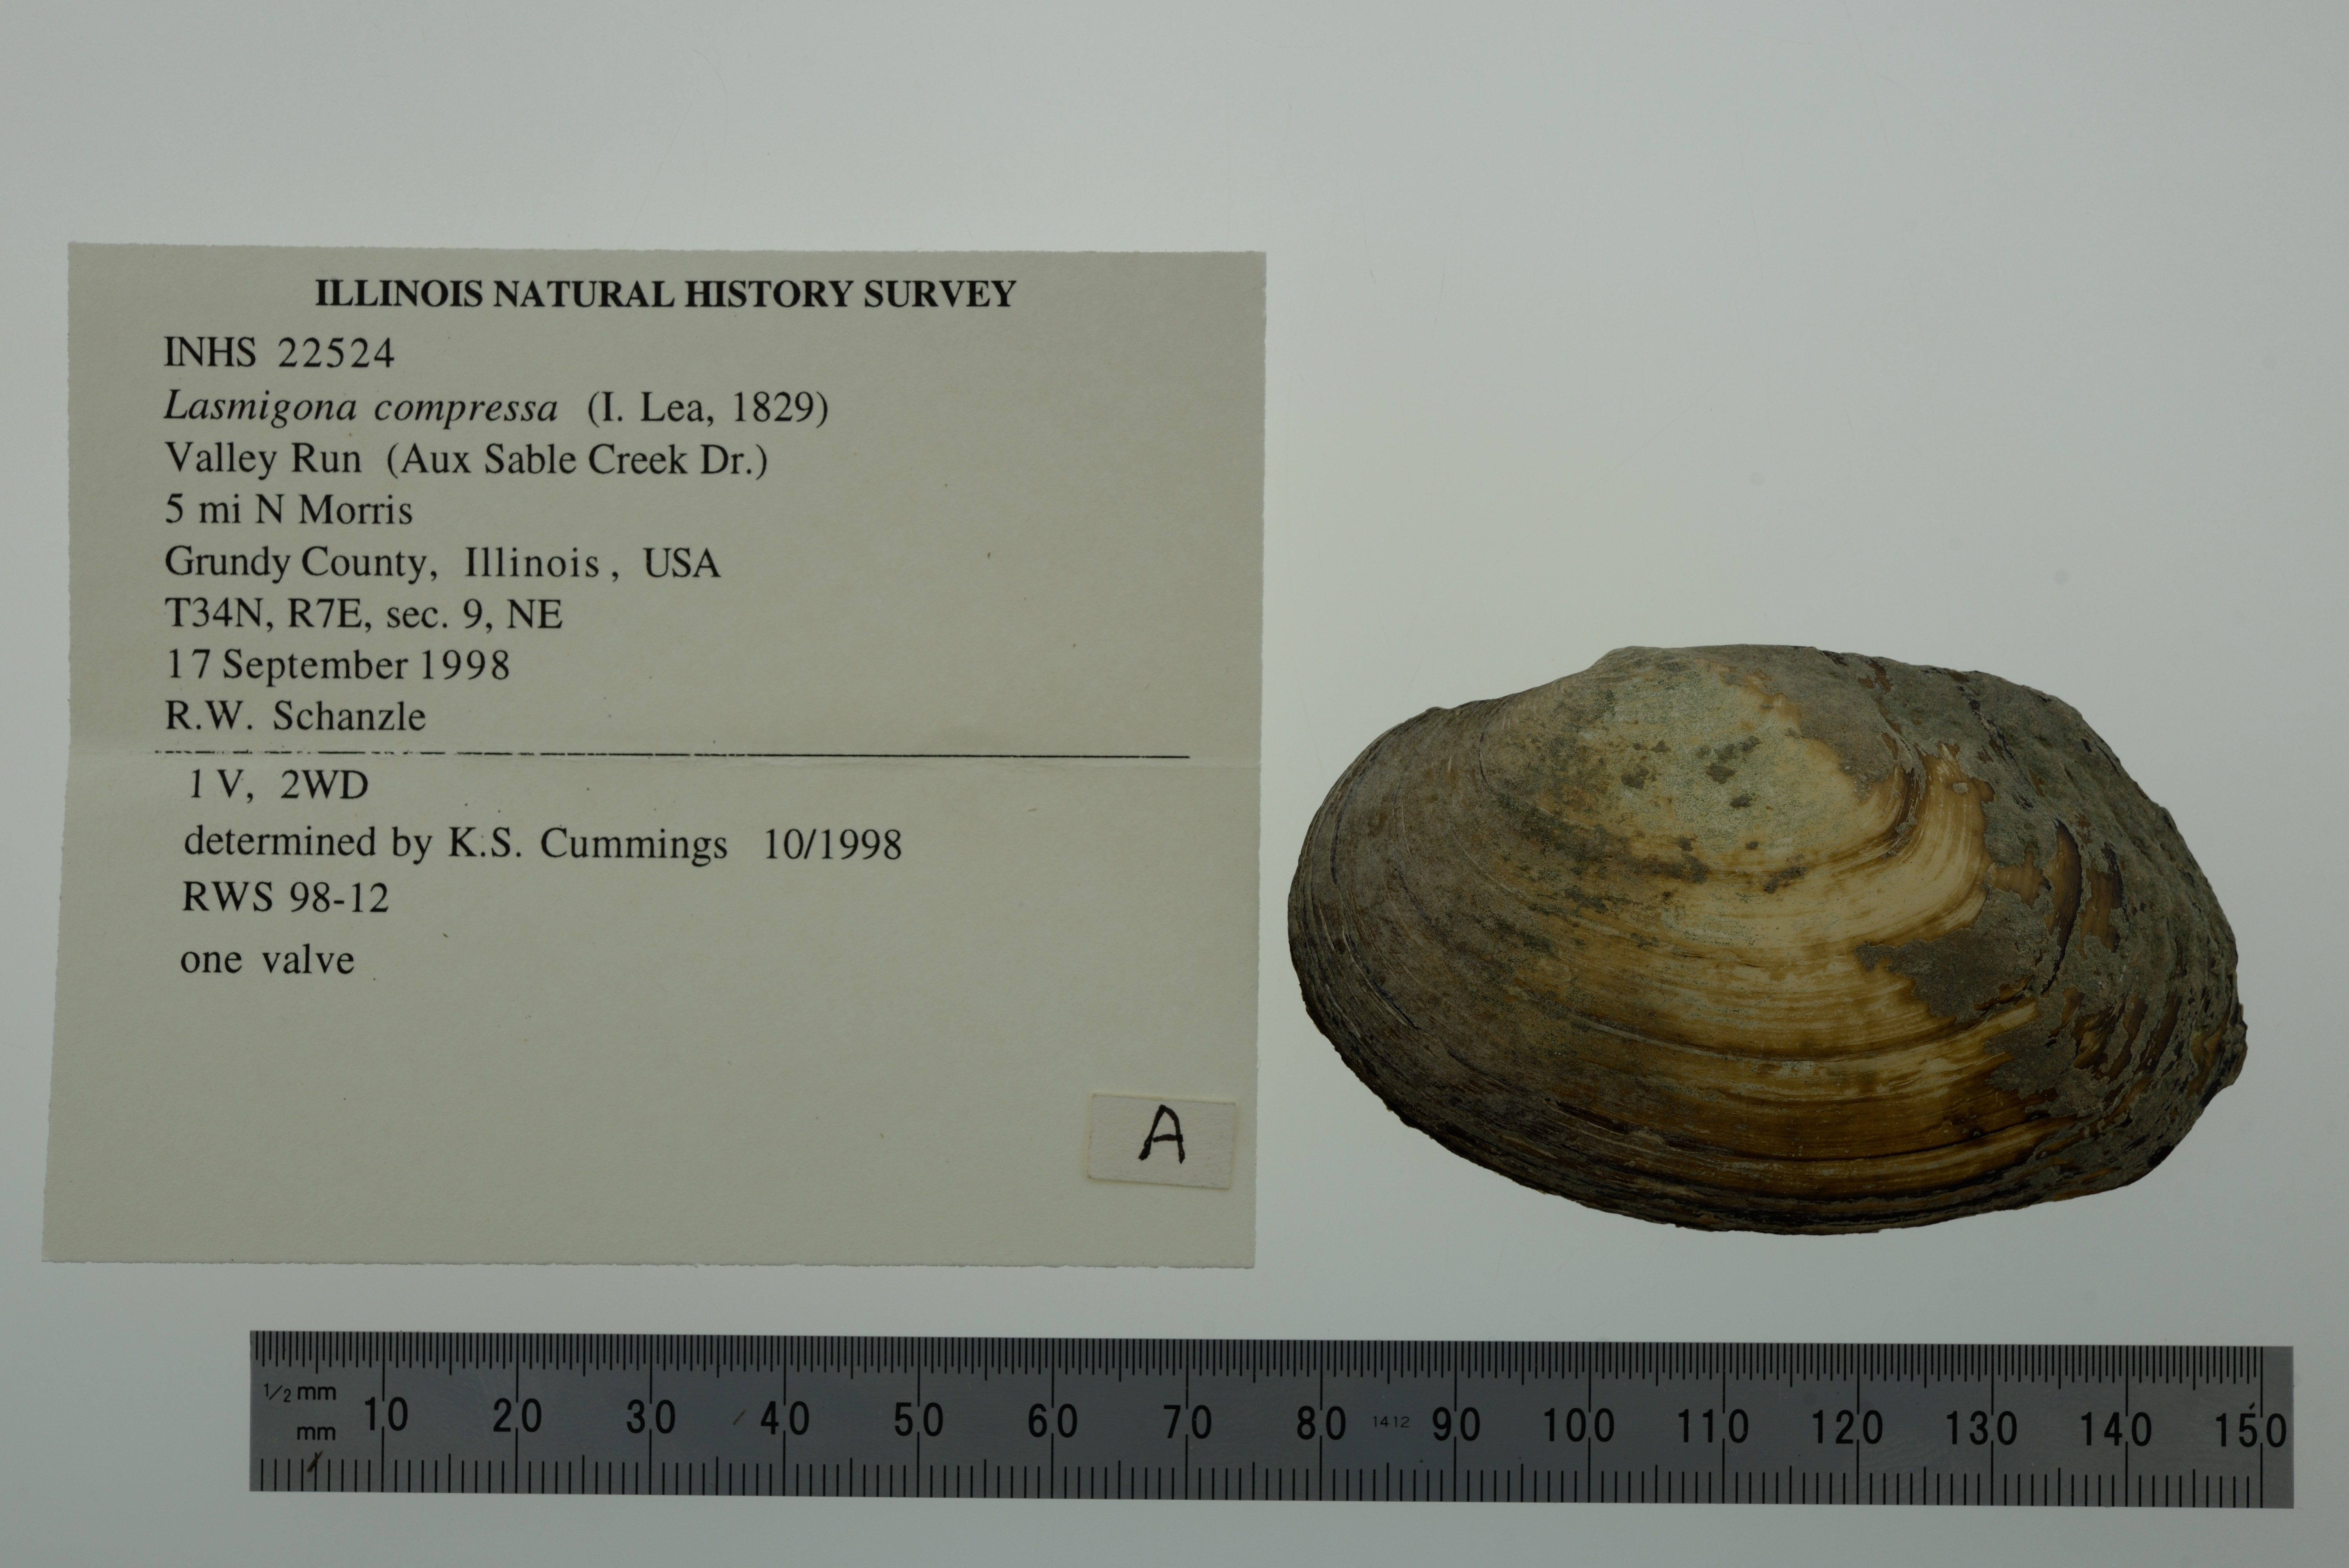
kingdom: Animalia
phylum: Mollusca
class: Bivalvia
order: Unionida
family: Unionidae
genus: Lasmigona
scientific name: Lasmigona compressa
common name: Creek heelsplitter
